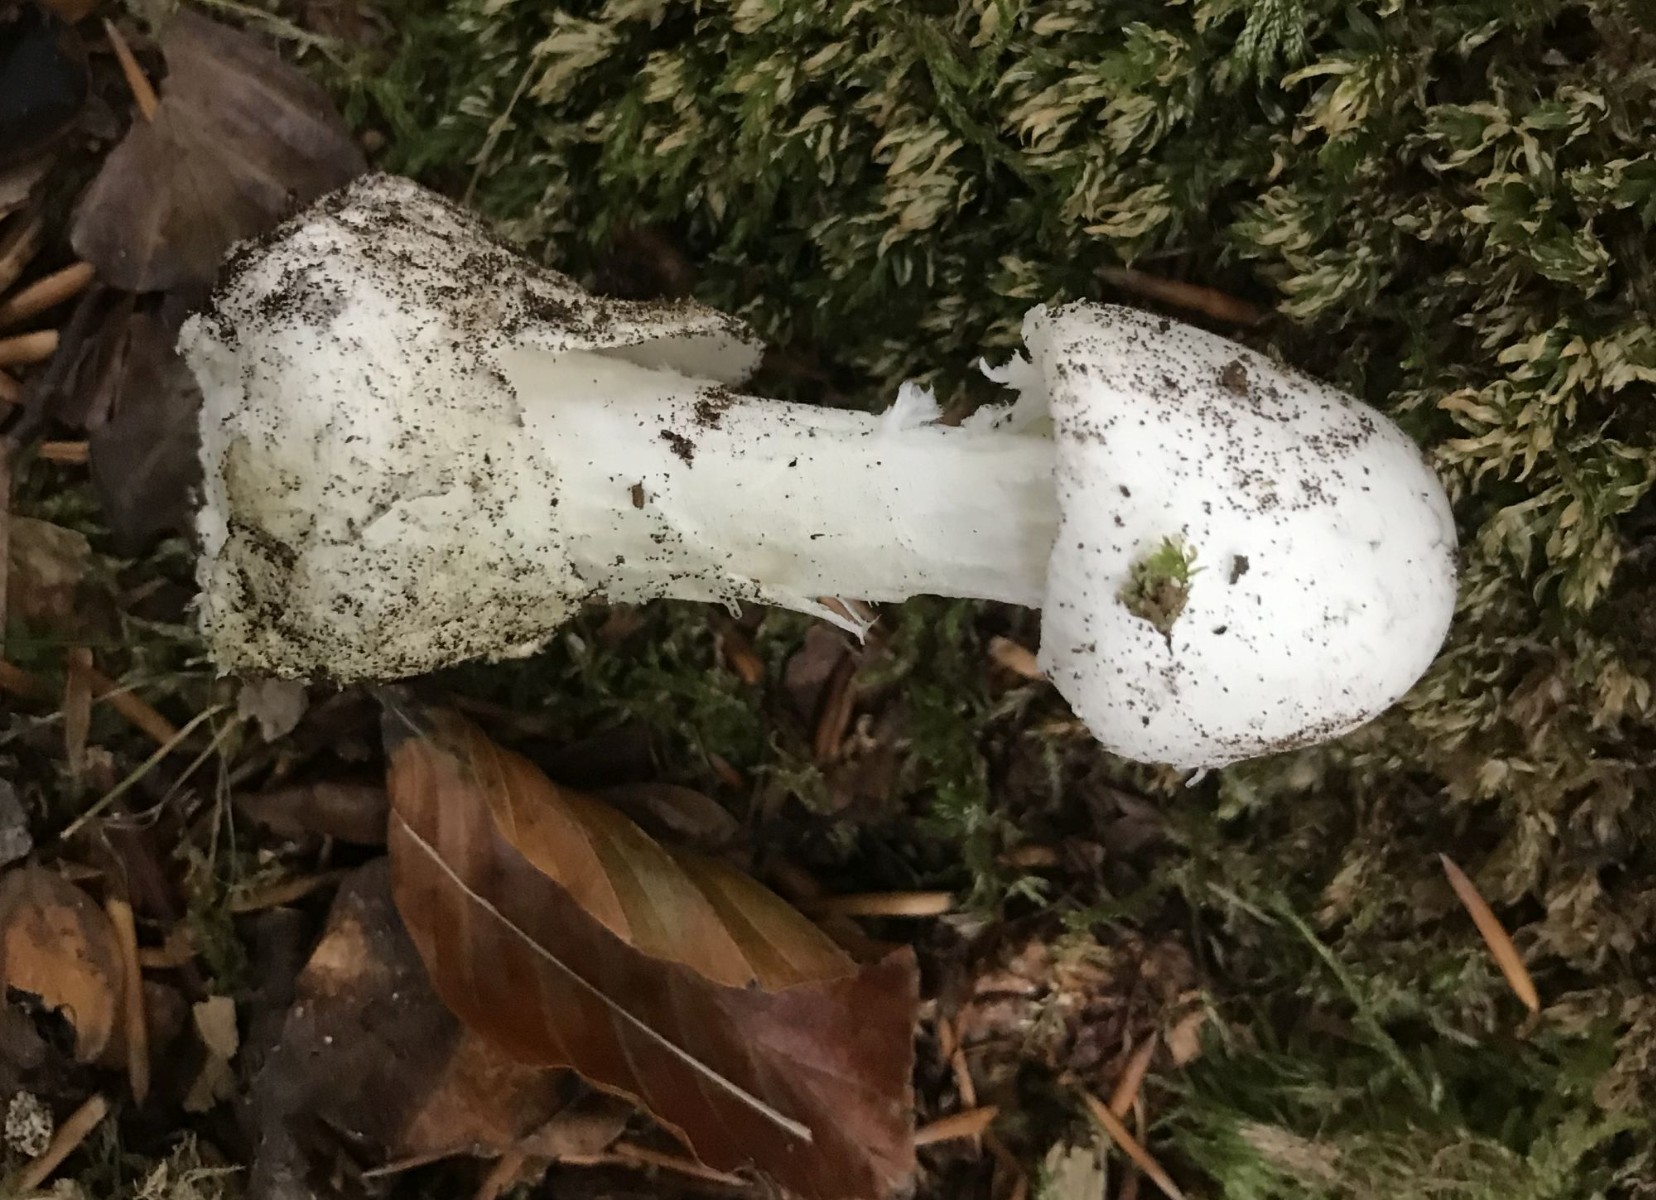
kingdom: Fungi
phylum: Basidiomycota
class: Agaricomycetes
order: Agaricales
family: Amanitaceae
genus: Amanita
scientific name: Amanita virosa
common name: snehvid fluesvamp
